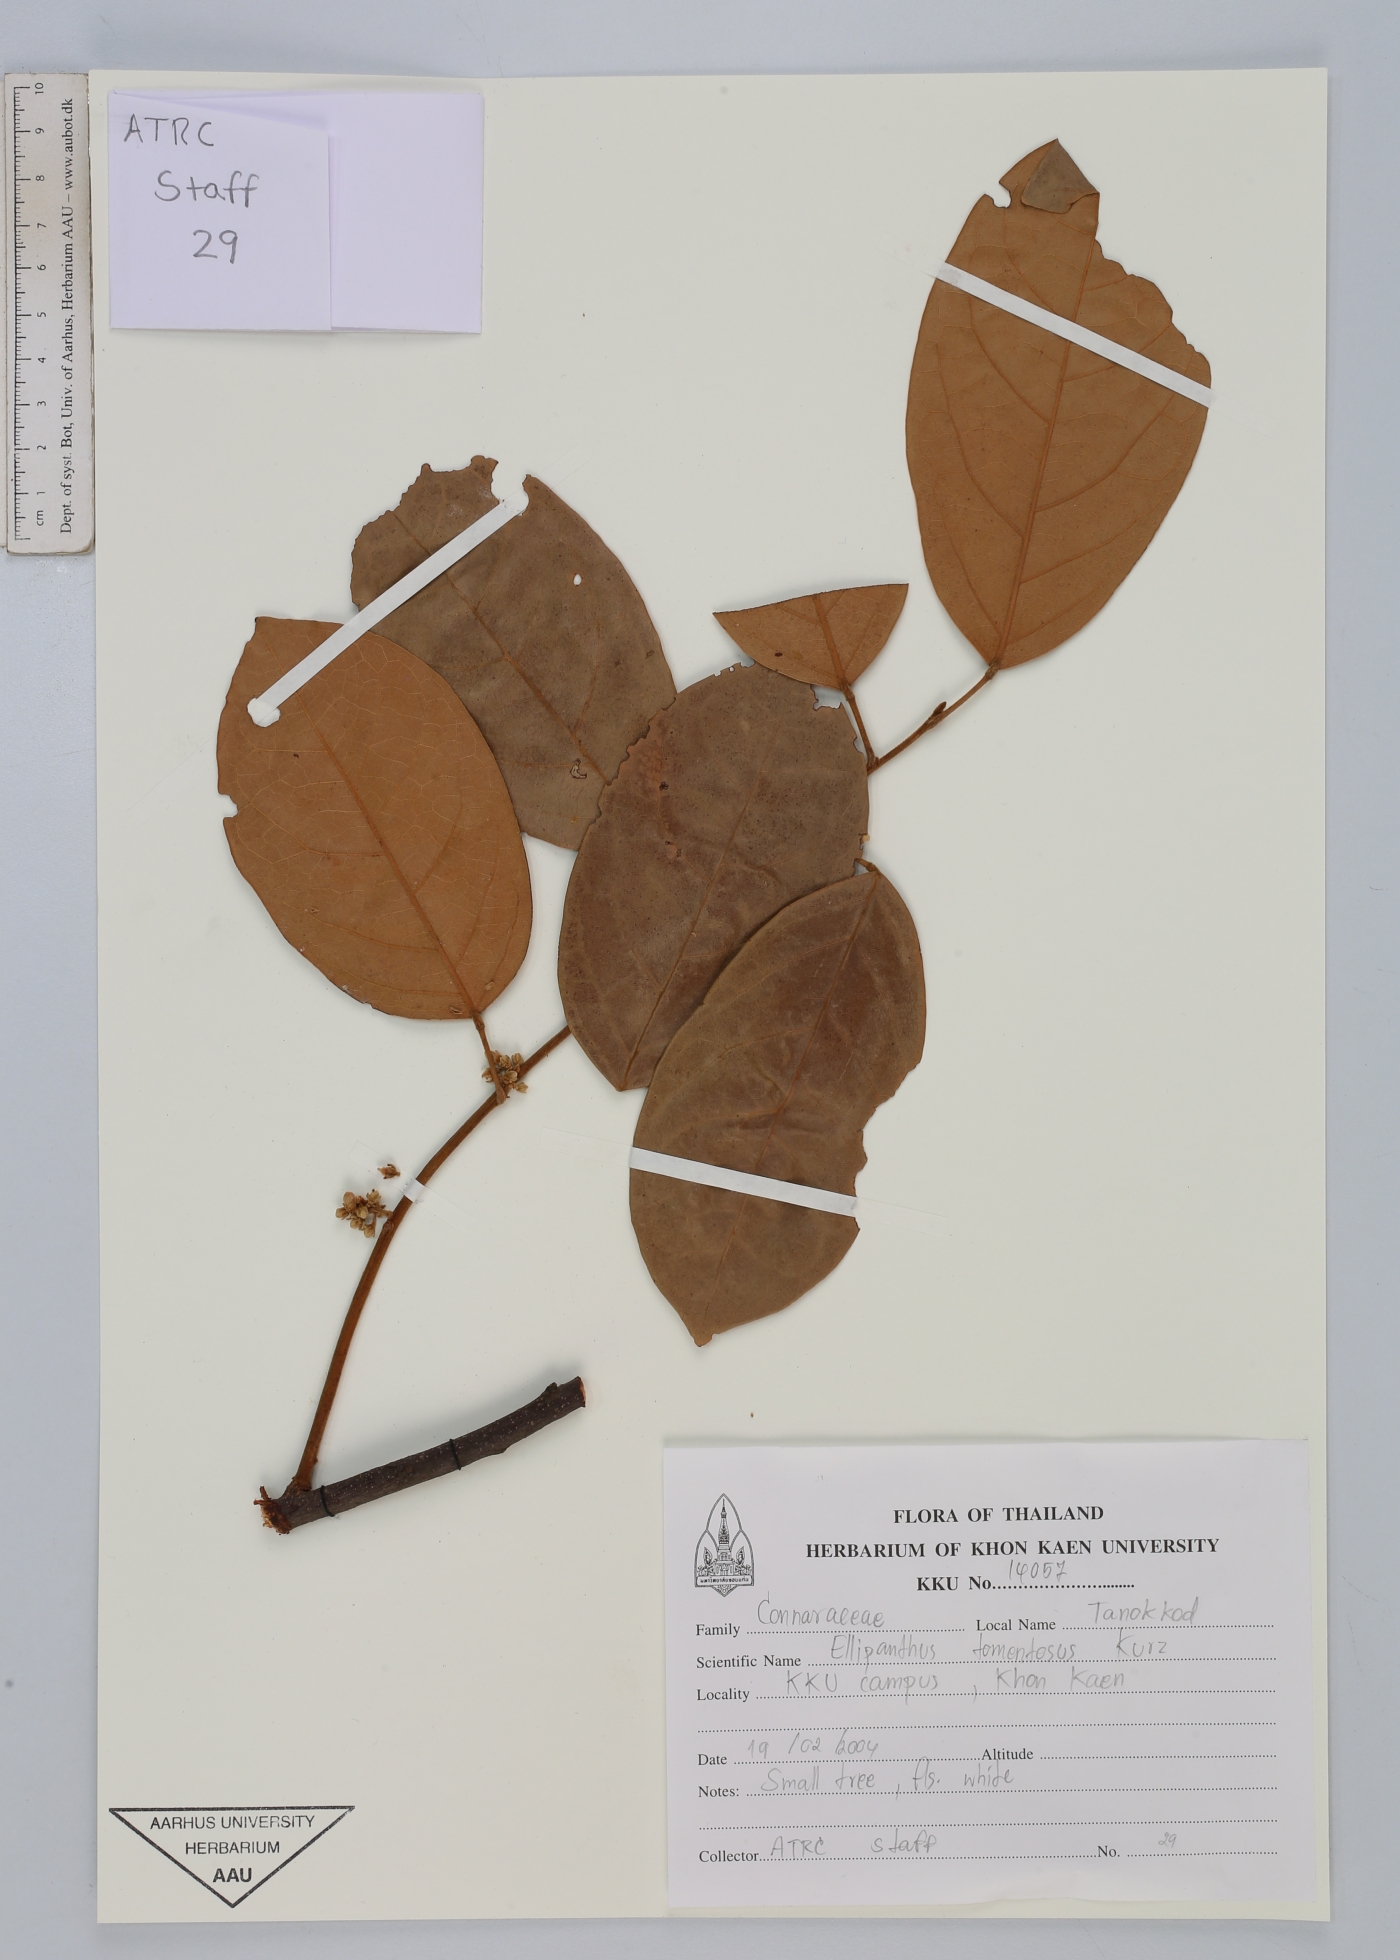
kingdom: Plantae
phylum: Tracheophyta
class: Magnoliopsida
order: Oxalidales
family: Connaraceae
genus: Ellipanthus
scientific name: Ellipanthus tomentosus
